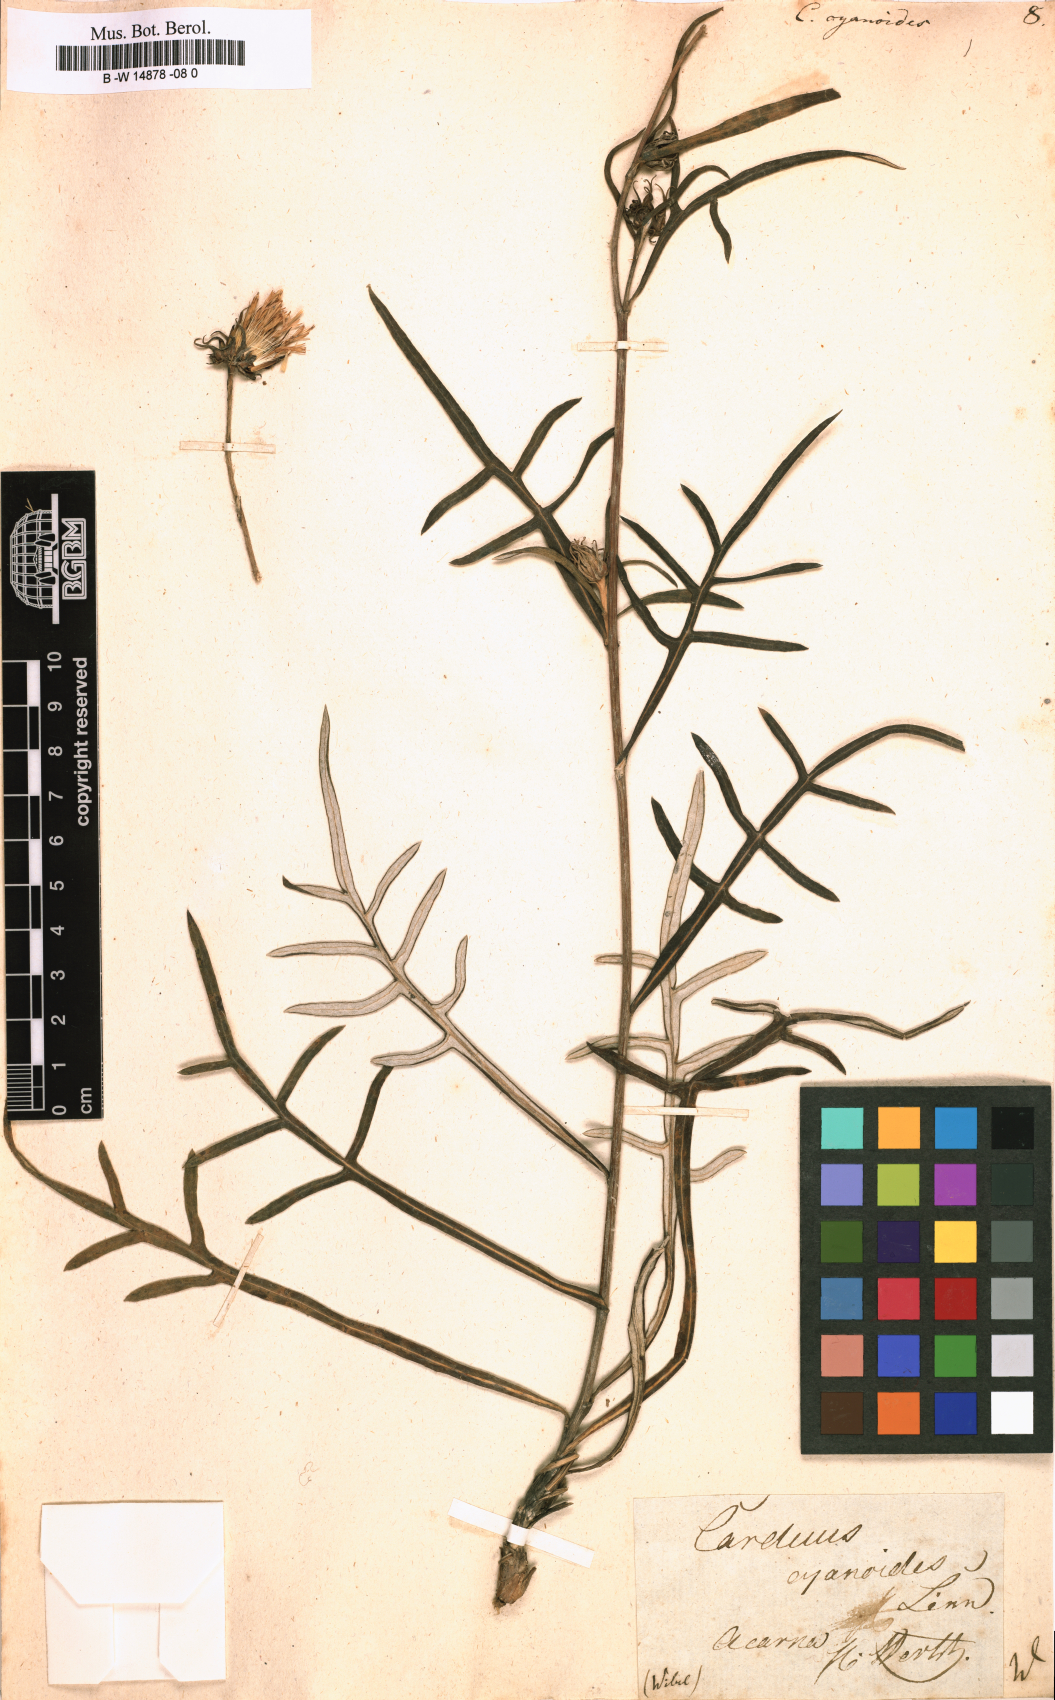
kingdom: Plantae
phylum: Tracheophyta
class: Magnoliopsida
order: Asterales
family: Asteraceae
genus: Jurinea
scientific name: Jurinea
